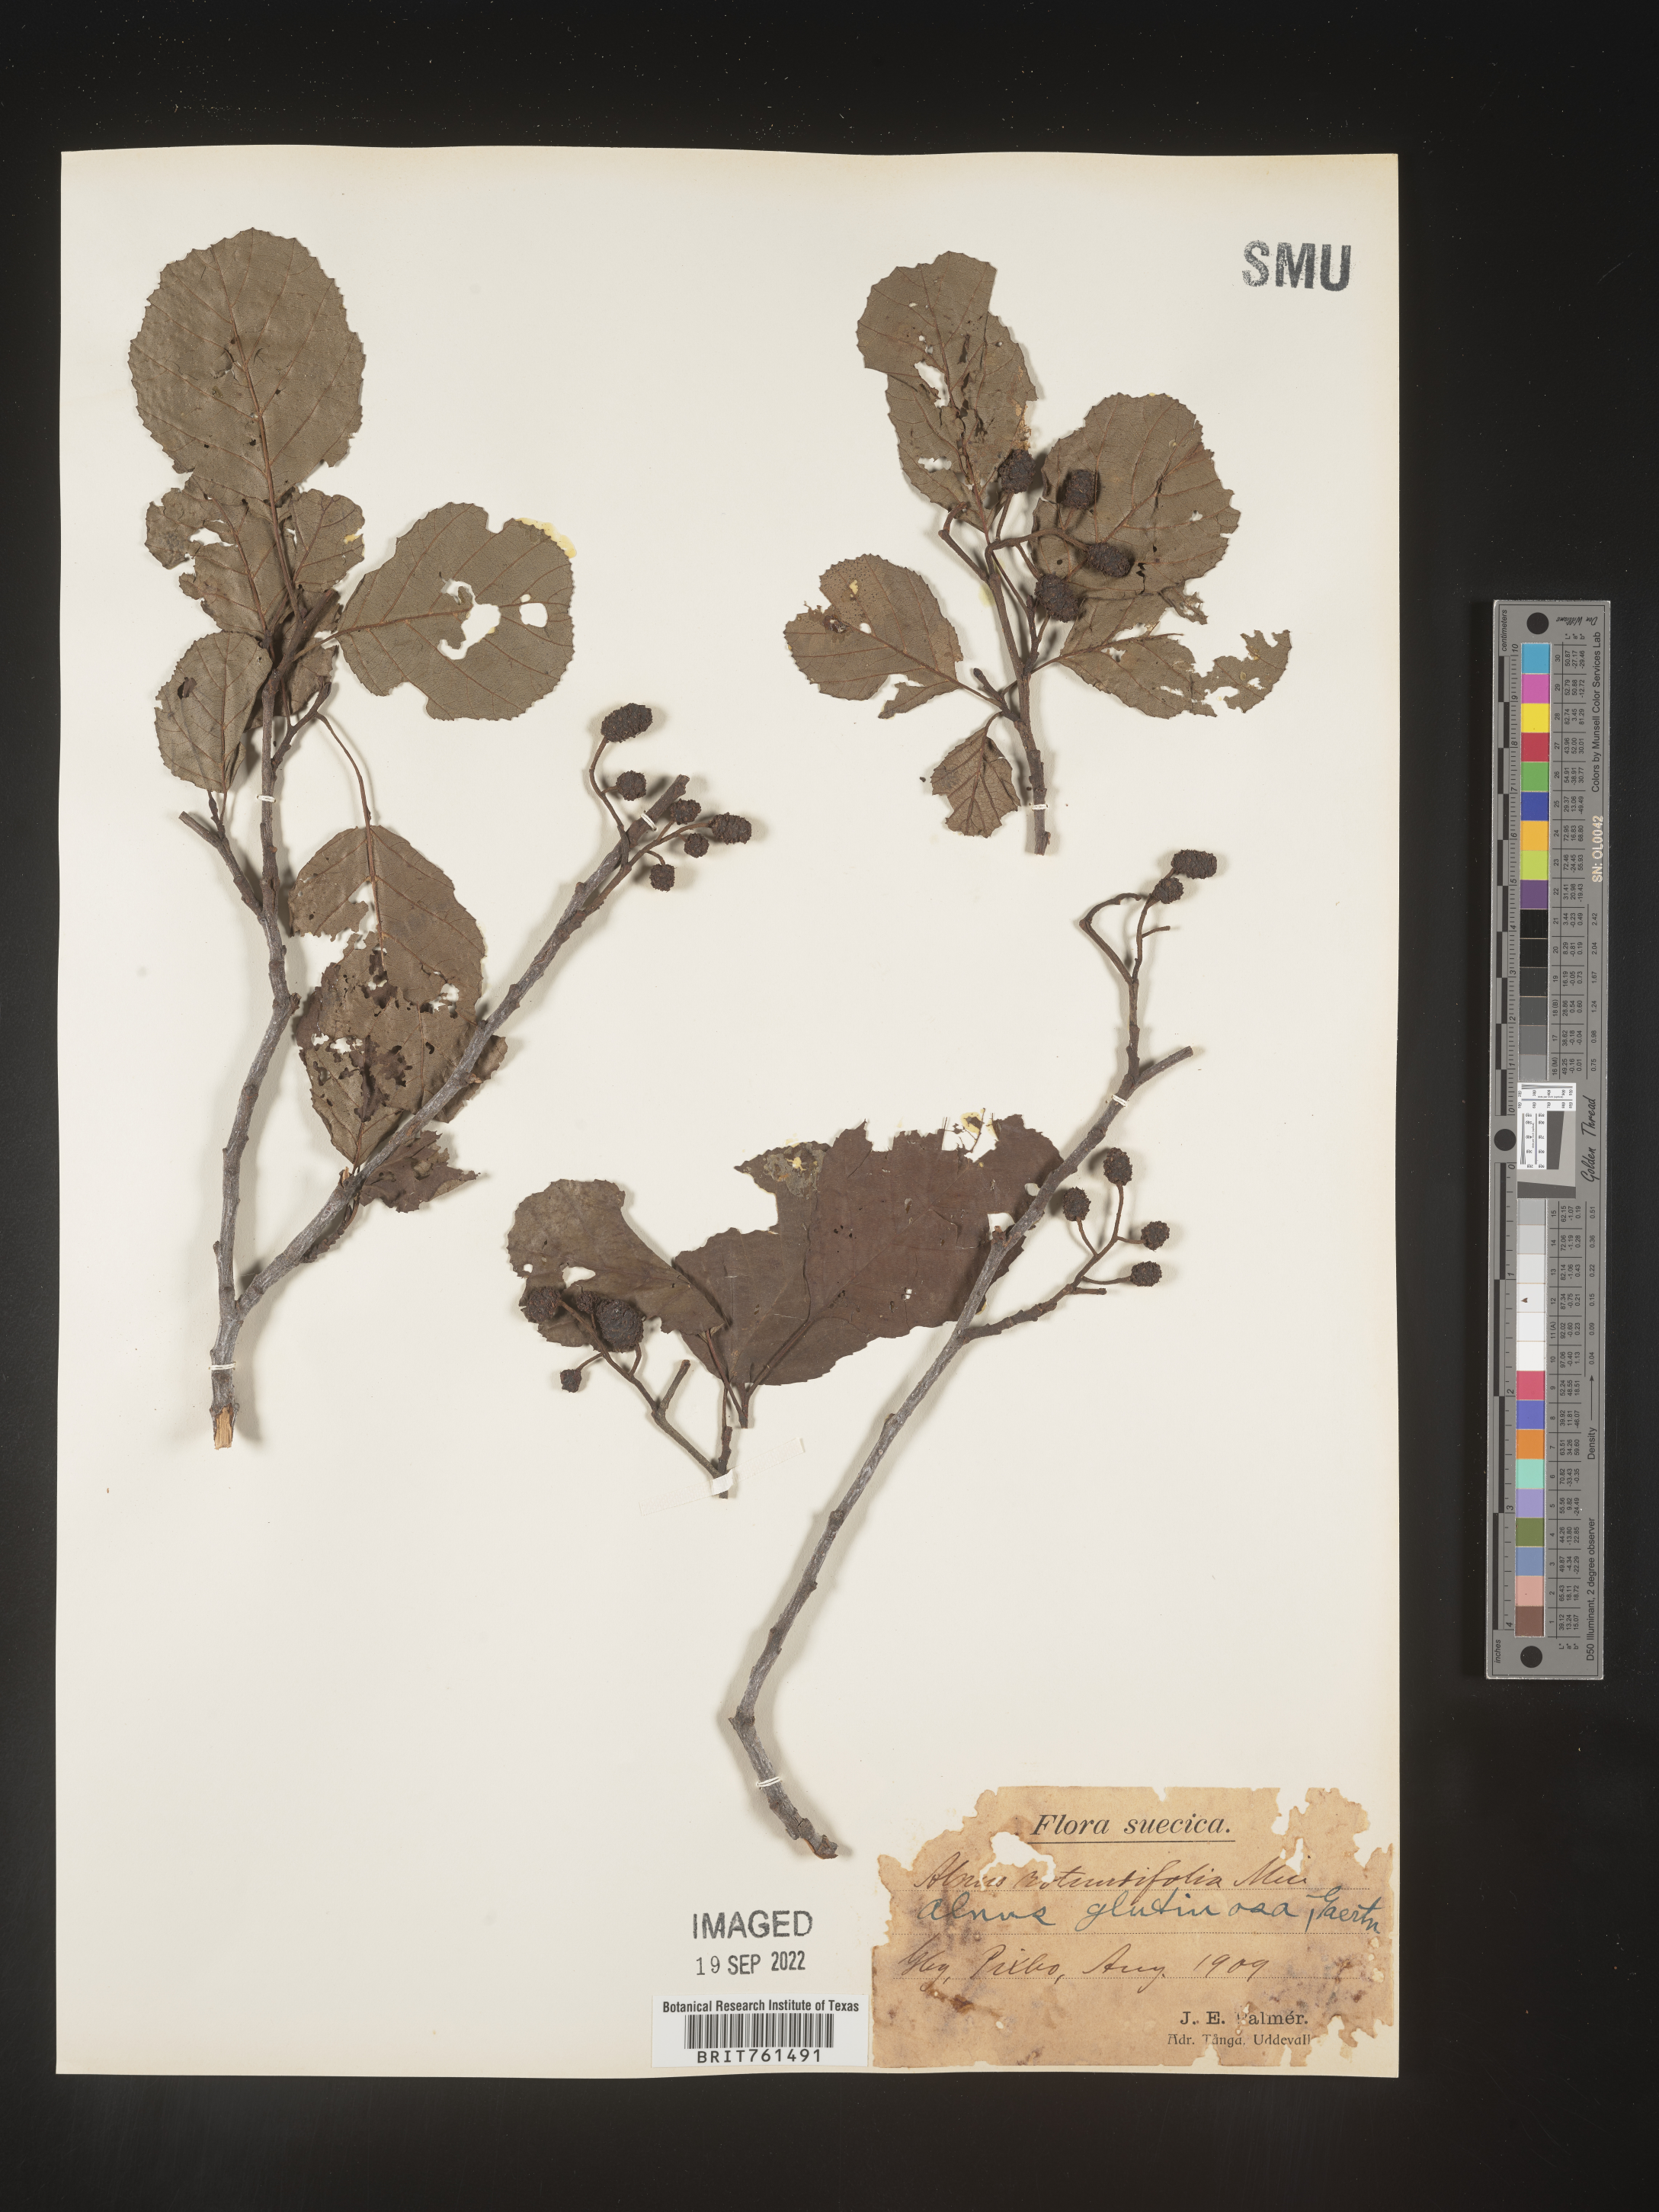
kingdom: Plantae
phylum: Tracheophyta
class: Magnoliopsida
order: Fagales
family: Betulaceae
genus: Alnus
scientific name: Alnus
